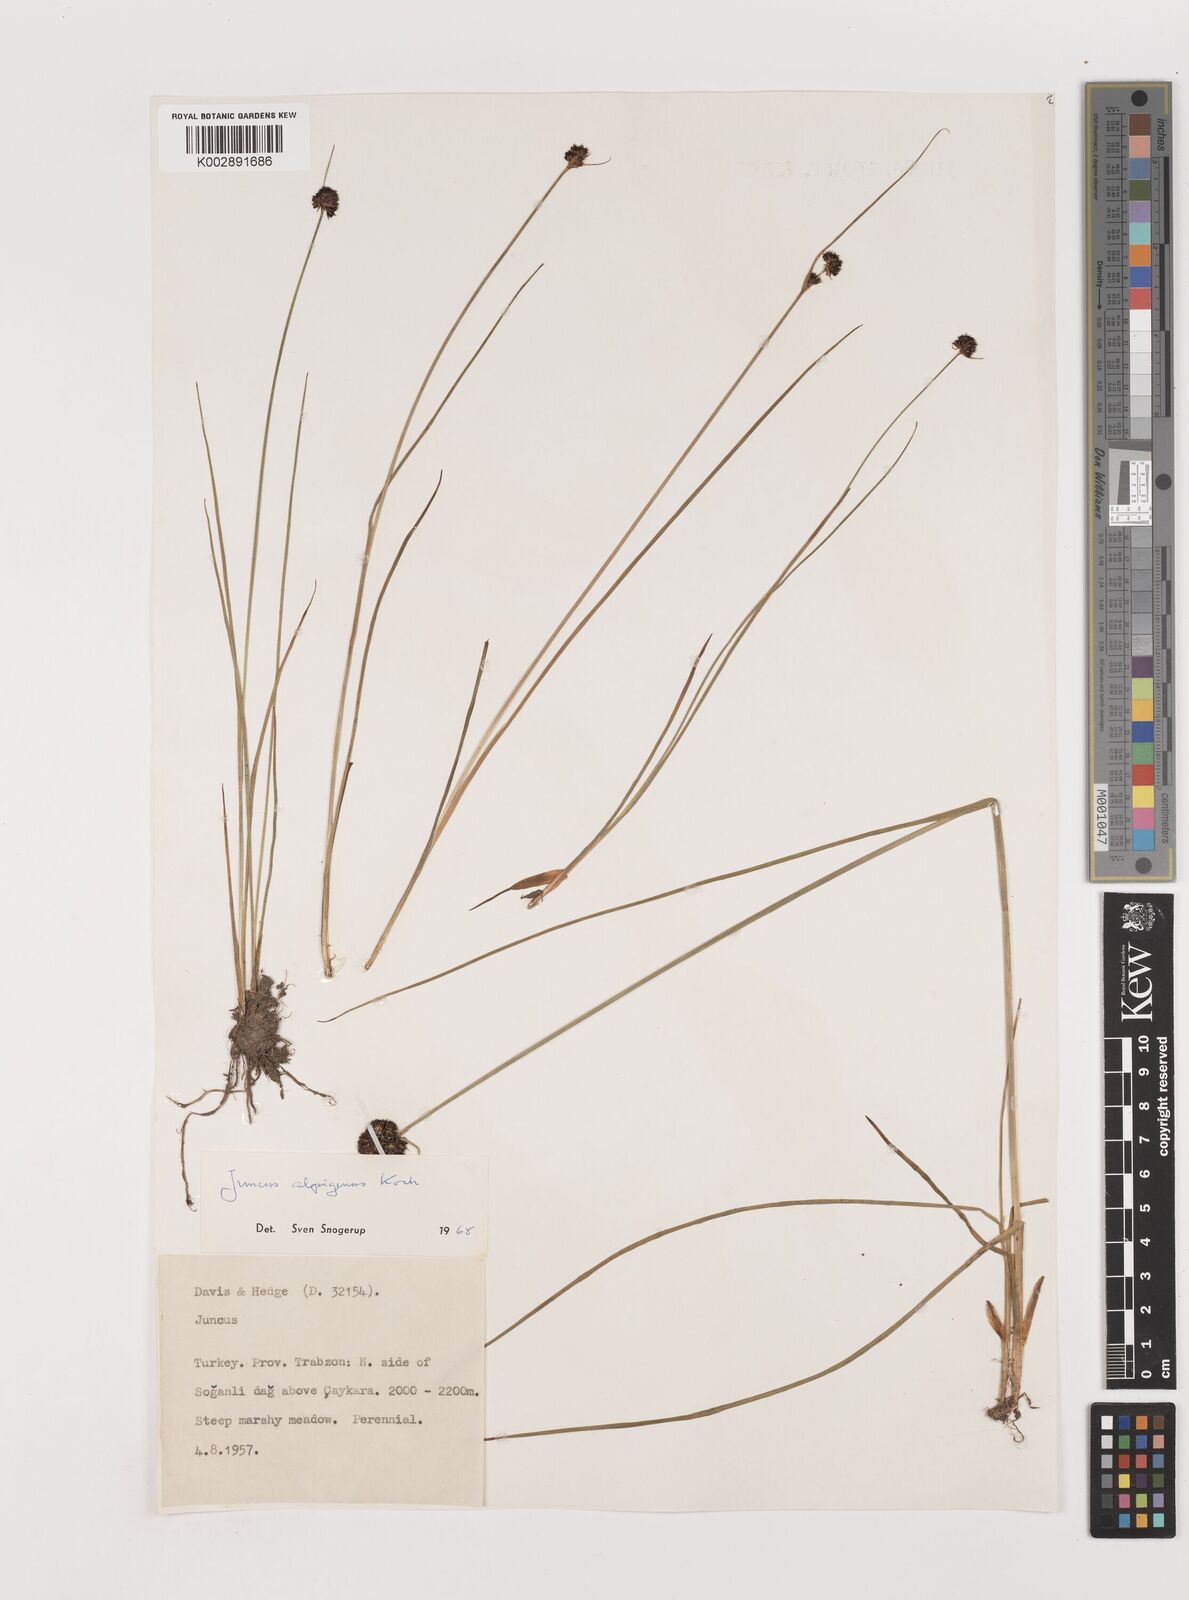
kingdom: Plantae
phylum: Tracheophyta
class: Liliopsida
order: Poales
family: Juncaceae
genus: Juncus
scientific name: Juncus alpigenus
